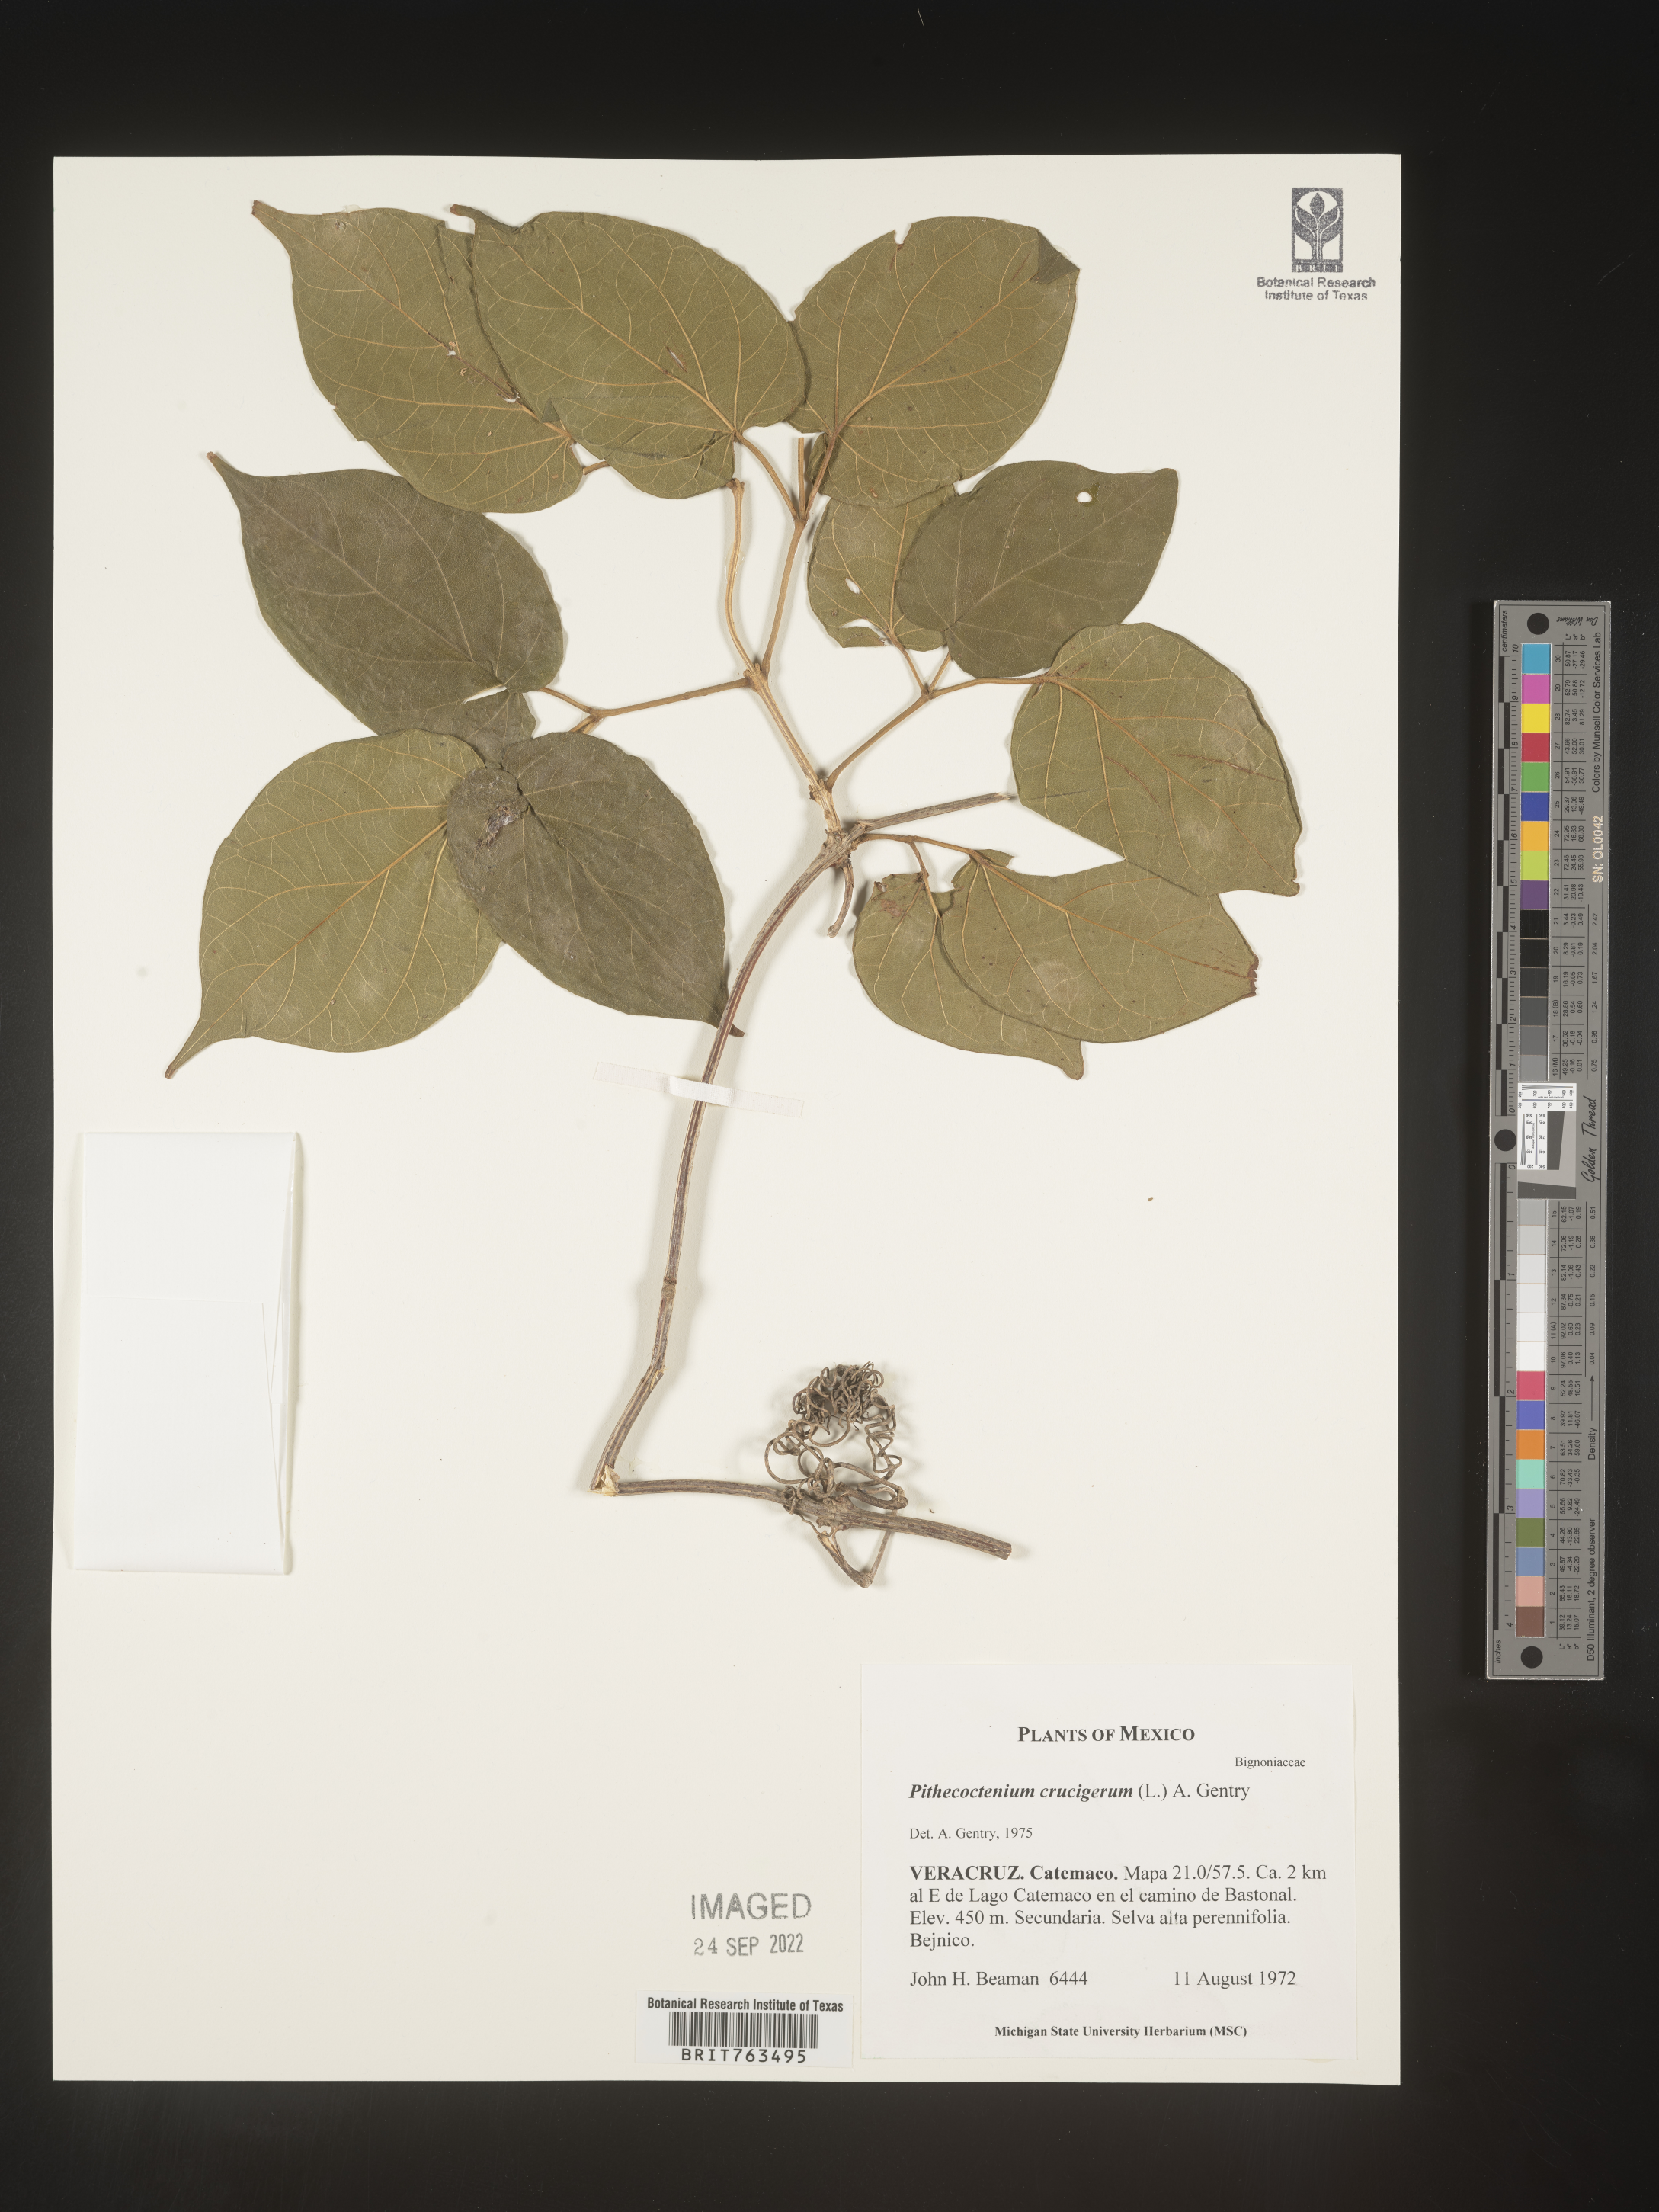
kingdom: Plantae
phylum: Tracheophyta
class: Magnoliopsida
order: Lamiales
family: Bignoniaceae
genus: Pithecoctenium
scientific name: Pithecoctenium
